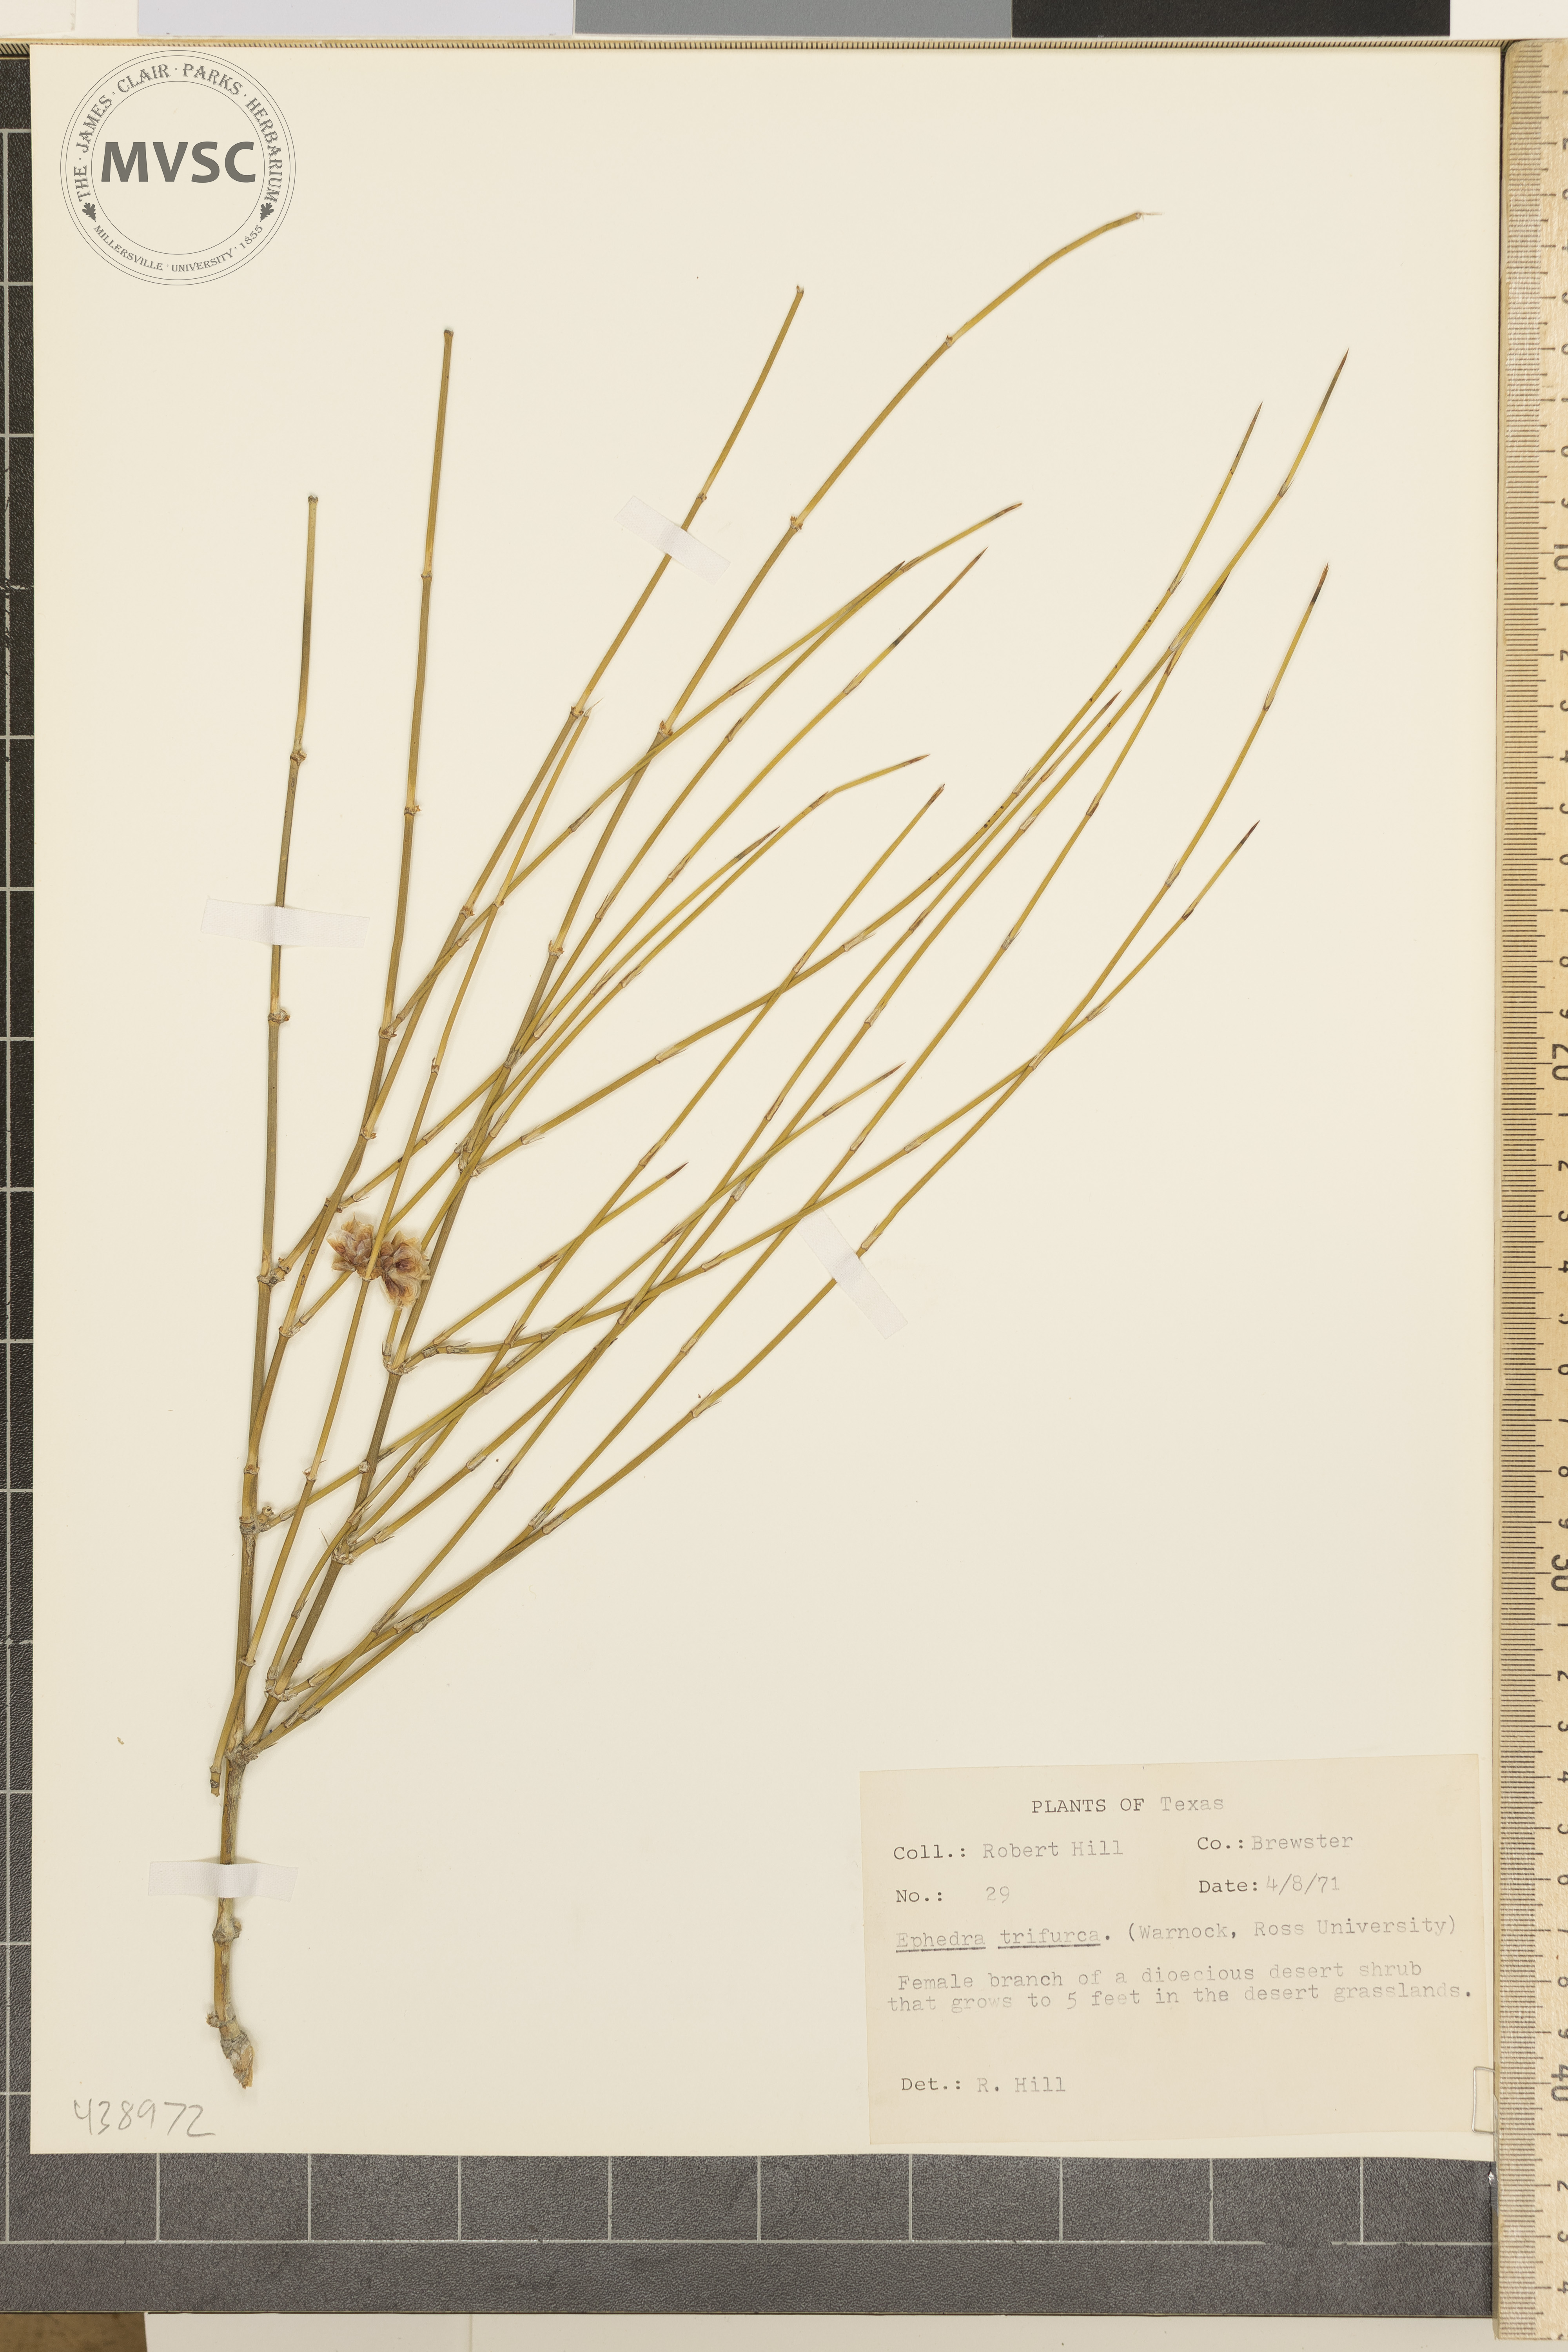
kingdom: Plantae
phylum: Tracheophyta
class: Gnetopsida
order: Ephedrales
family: Ephedraceae
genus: Ephedra
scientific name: Ephedra trifurca
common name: Mexican-tea
